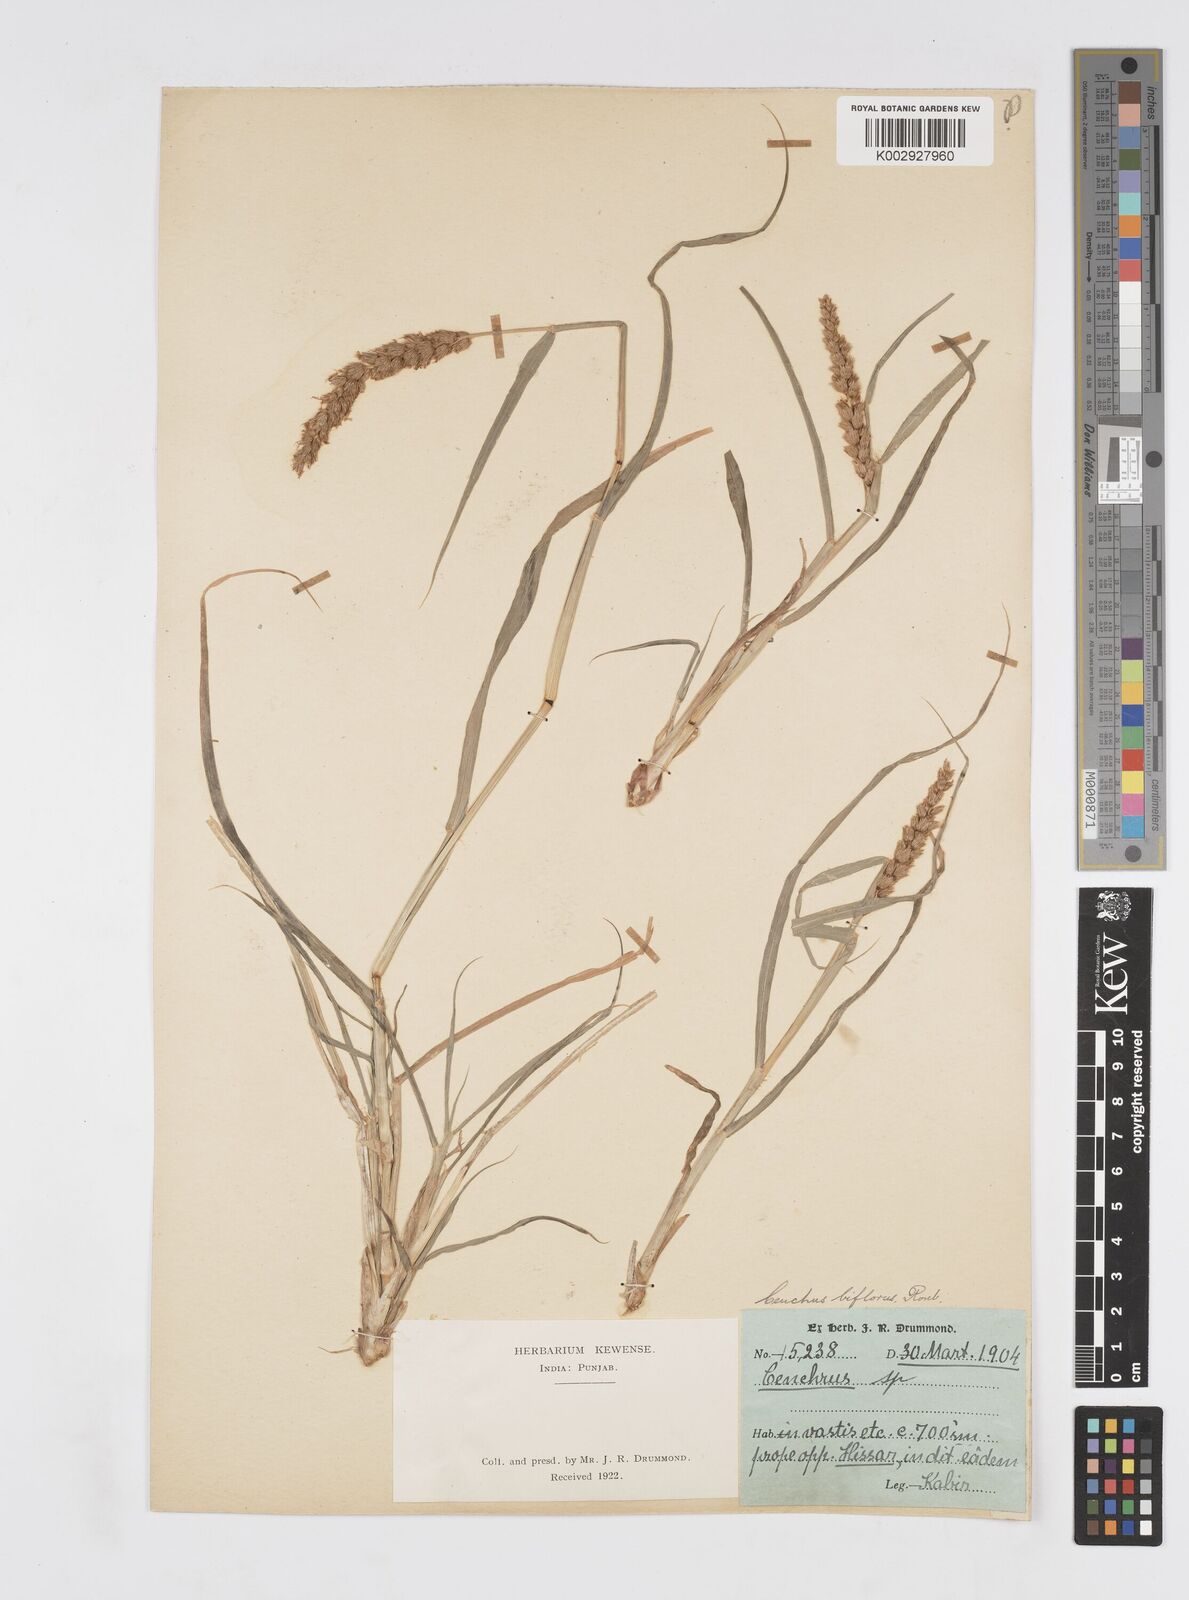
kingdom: Plantae
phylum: Tracheophyta
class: Liliopsida
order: Poales
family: Poaceae
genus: Cenchrus
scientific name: Cenchrus setigerus
